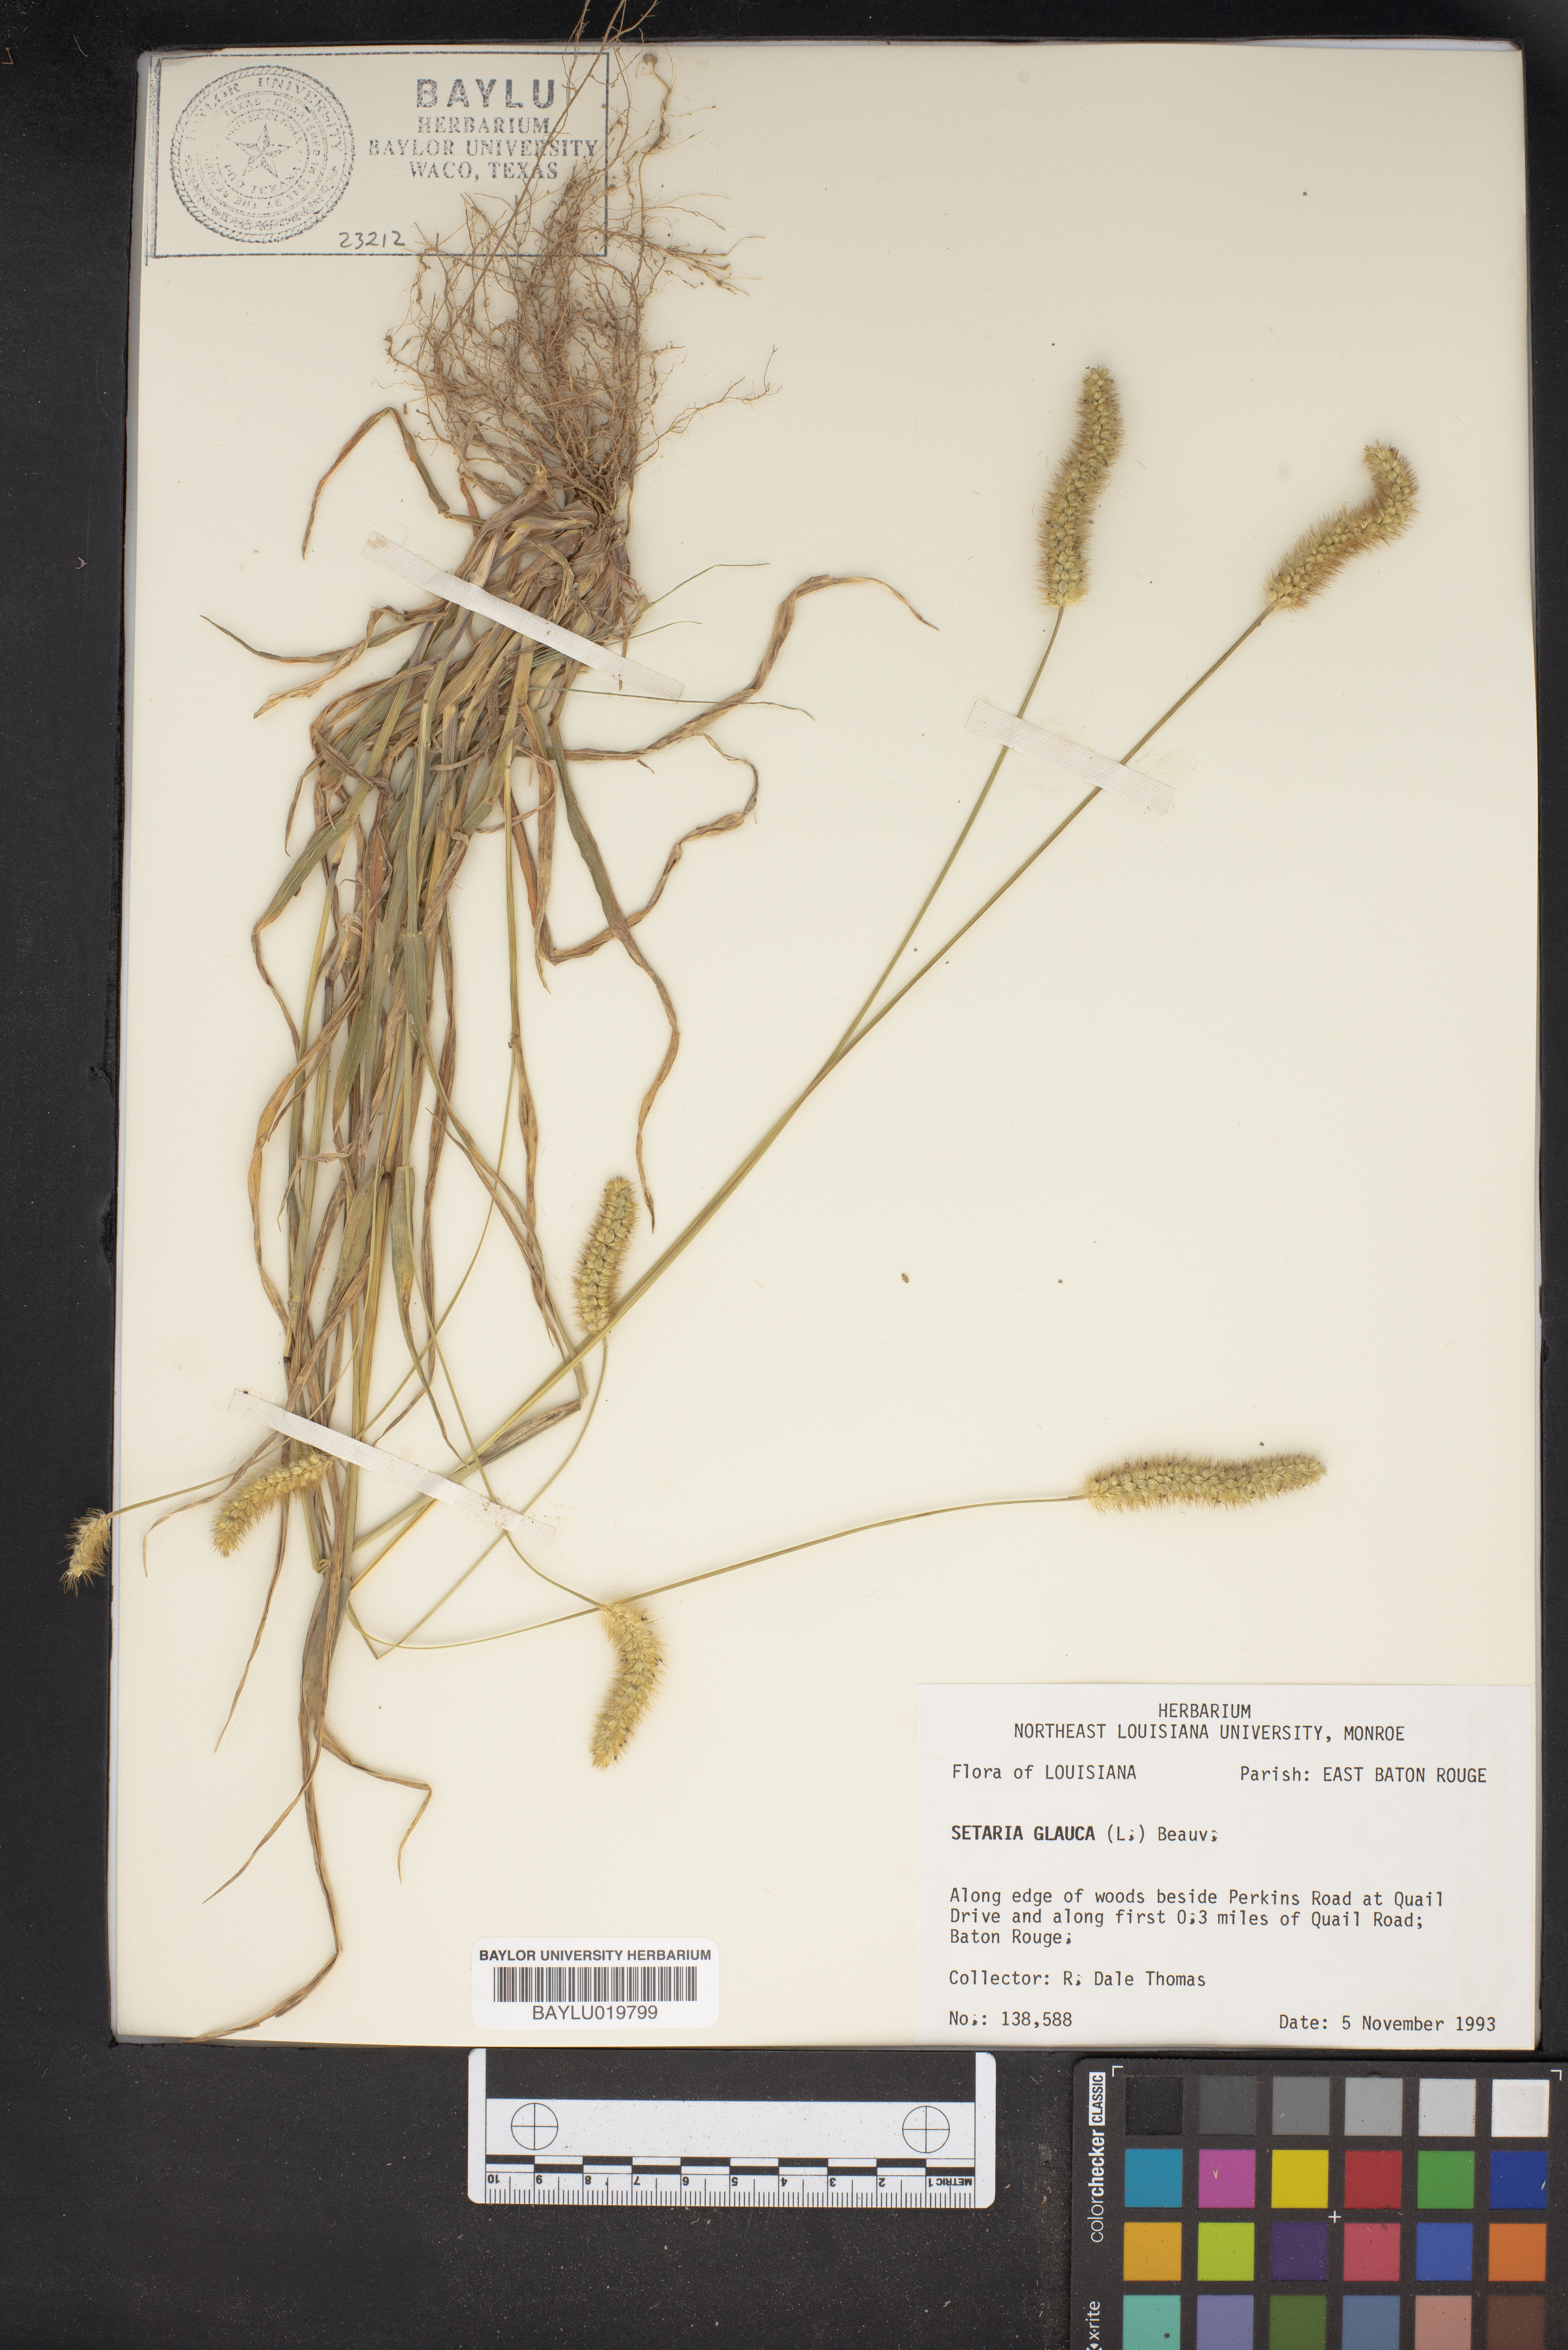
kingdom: Plantae
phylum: Tracheophyta
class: Liliopsida
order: Poales
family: Poaceae
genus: Cenchrus
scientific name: Cenchrus americanus
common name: Pearl millet
